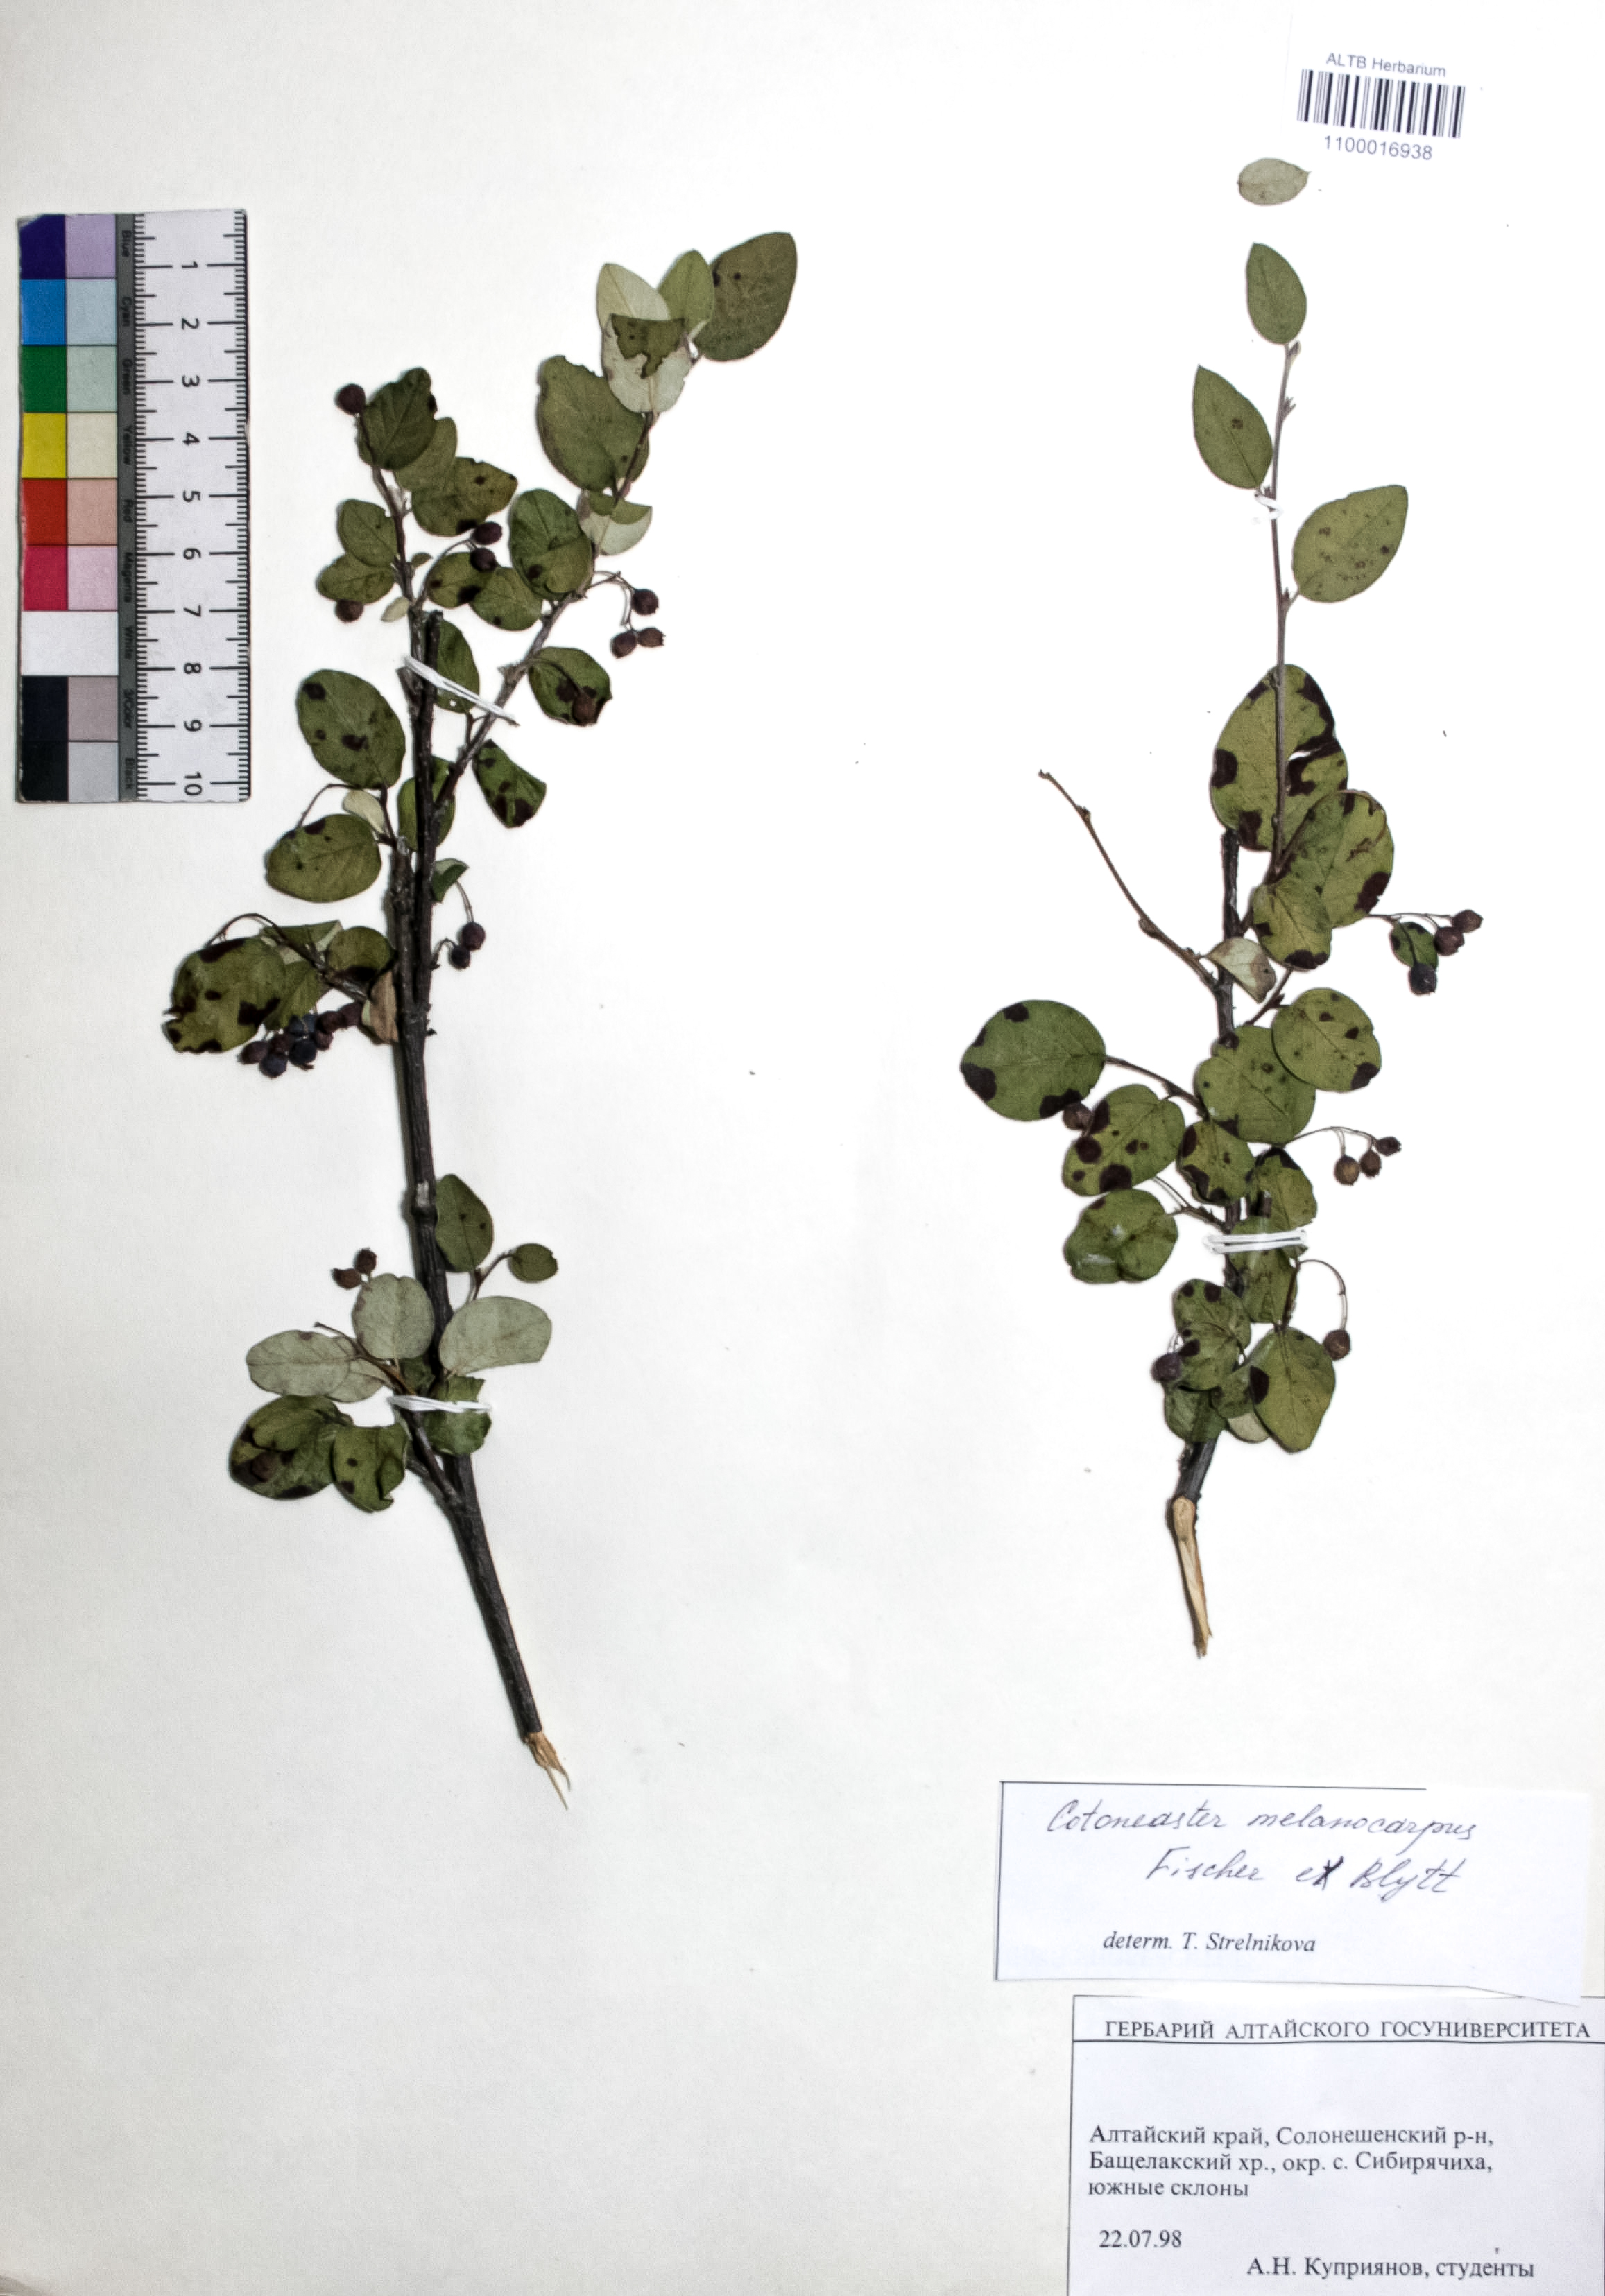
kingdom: Plantae
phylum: Tracheophyta
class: Magnoliopsida
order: Rosales
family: Rosaceae
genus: Cotoneaster
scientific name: Cotoneaster niger
